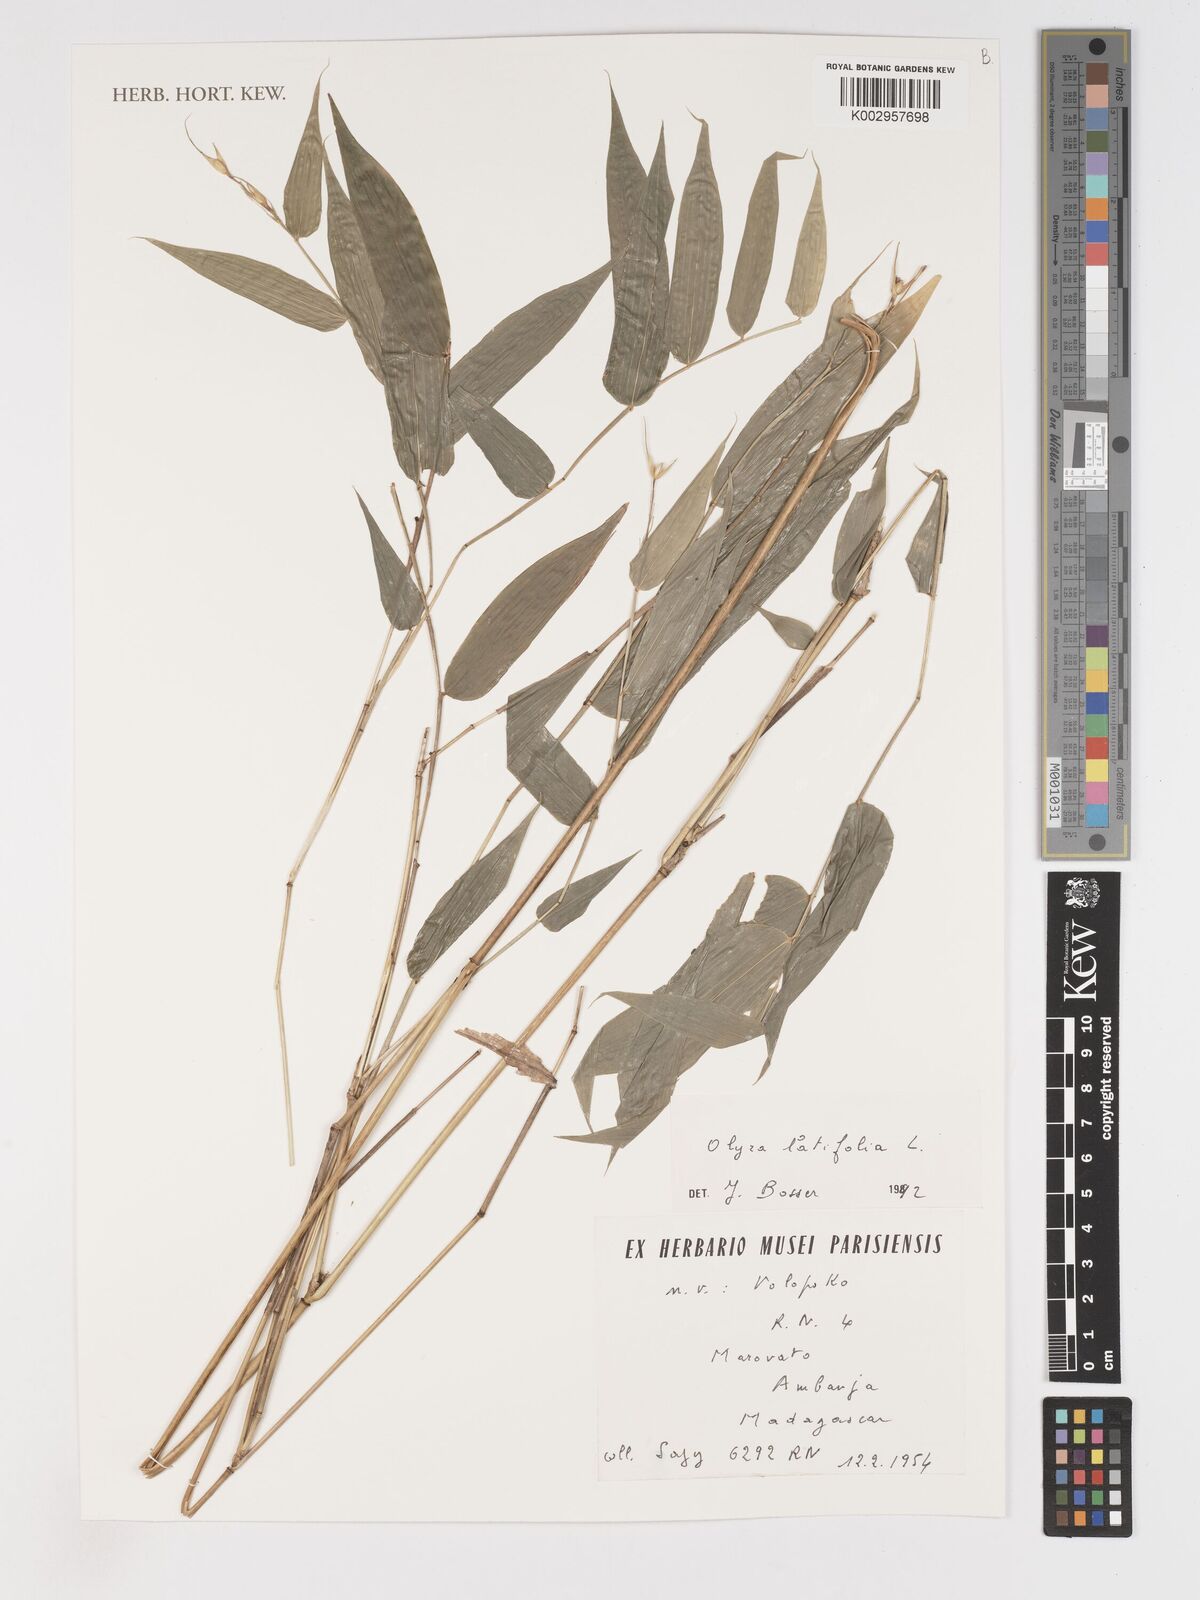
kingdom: Plantae
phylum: Tracheophyta
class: Liliopsida
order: Poales
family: Poaceae
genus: Olyra
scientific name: Olyra latifolia
